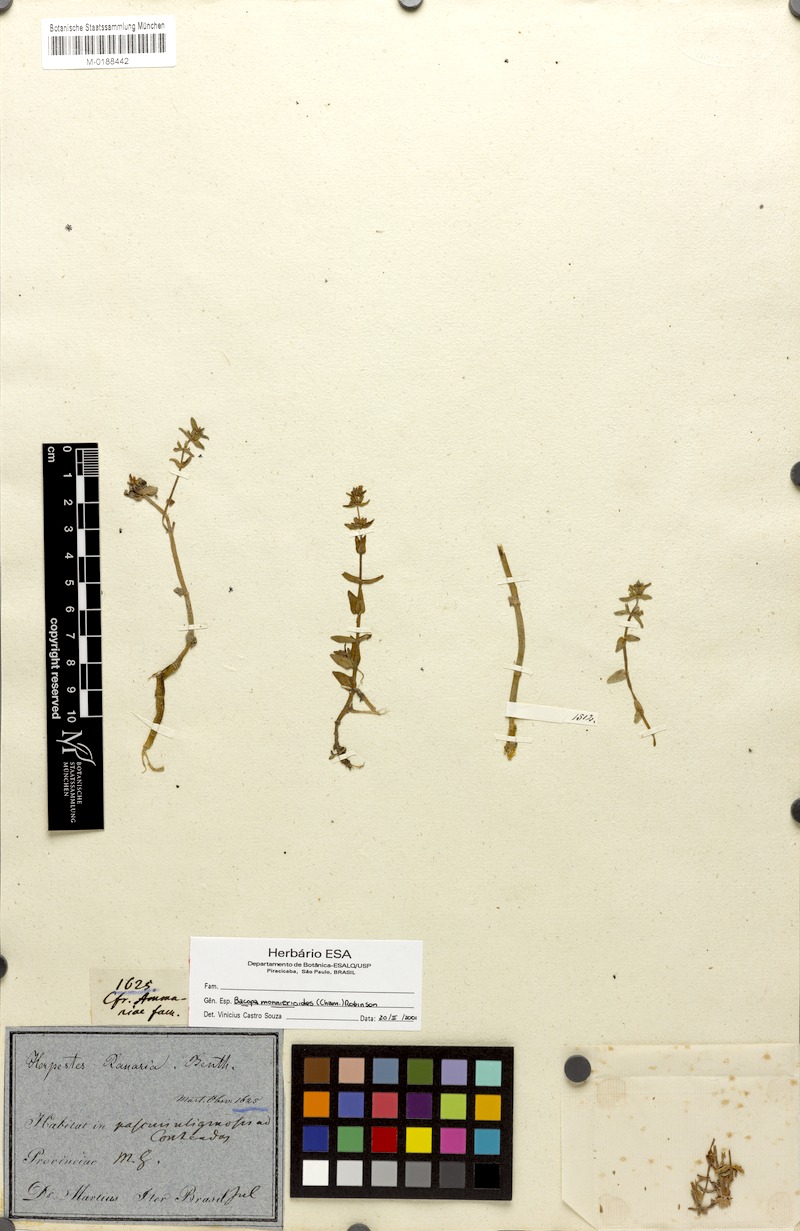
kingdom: Plantae
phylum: Tracheophyta
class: Magnoliopsida
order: Lamiales
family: Plantaginaceae
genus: Bacopa
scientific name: Bacopa monnierioides
